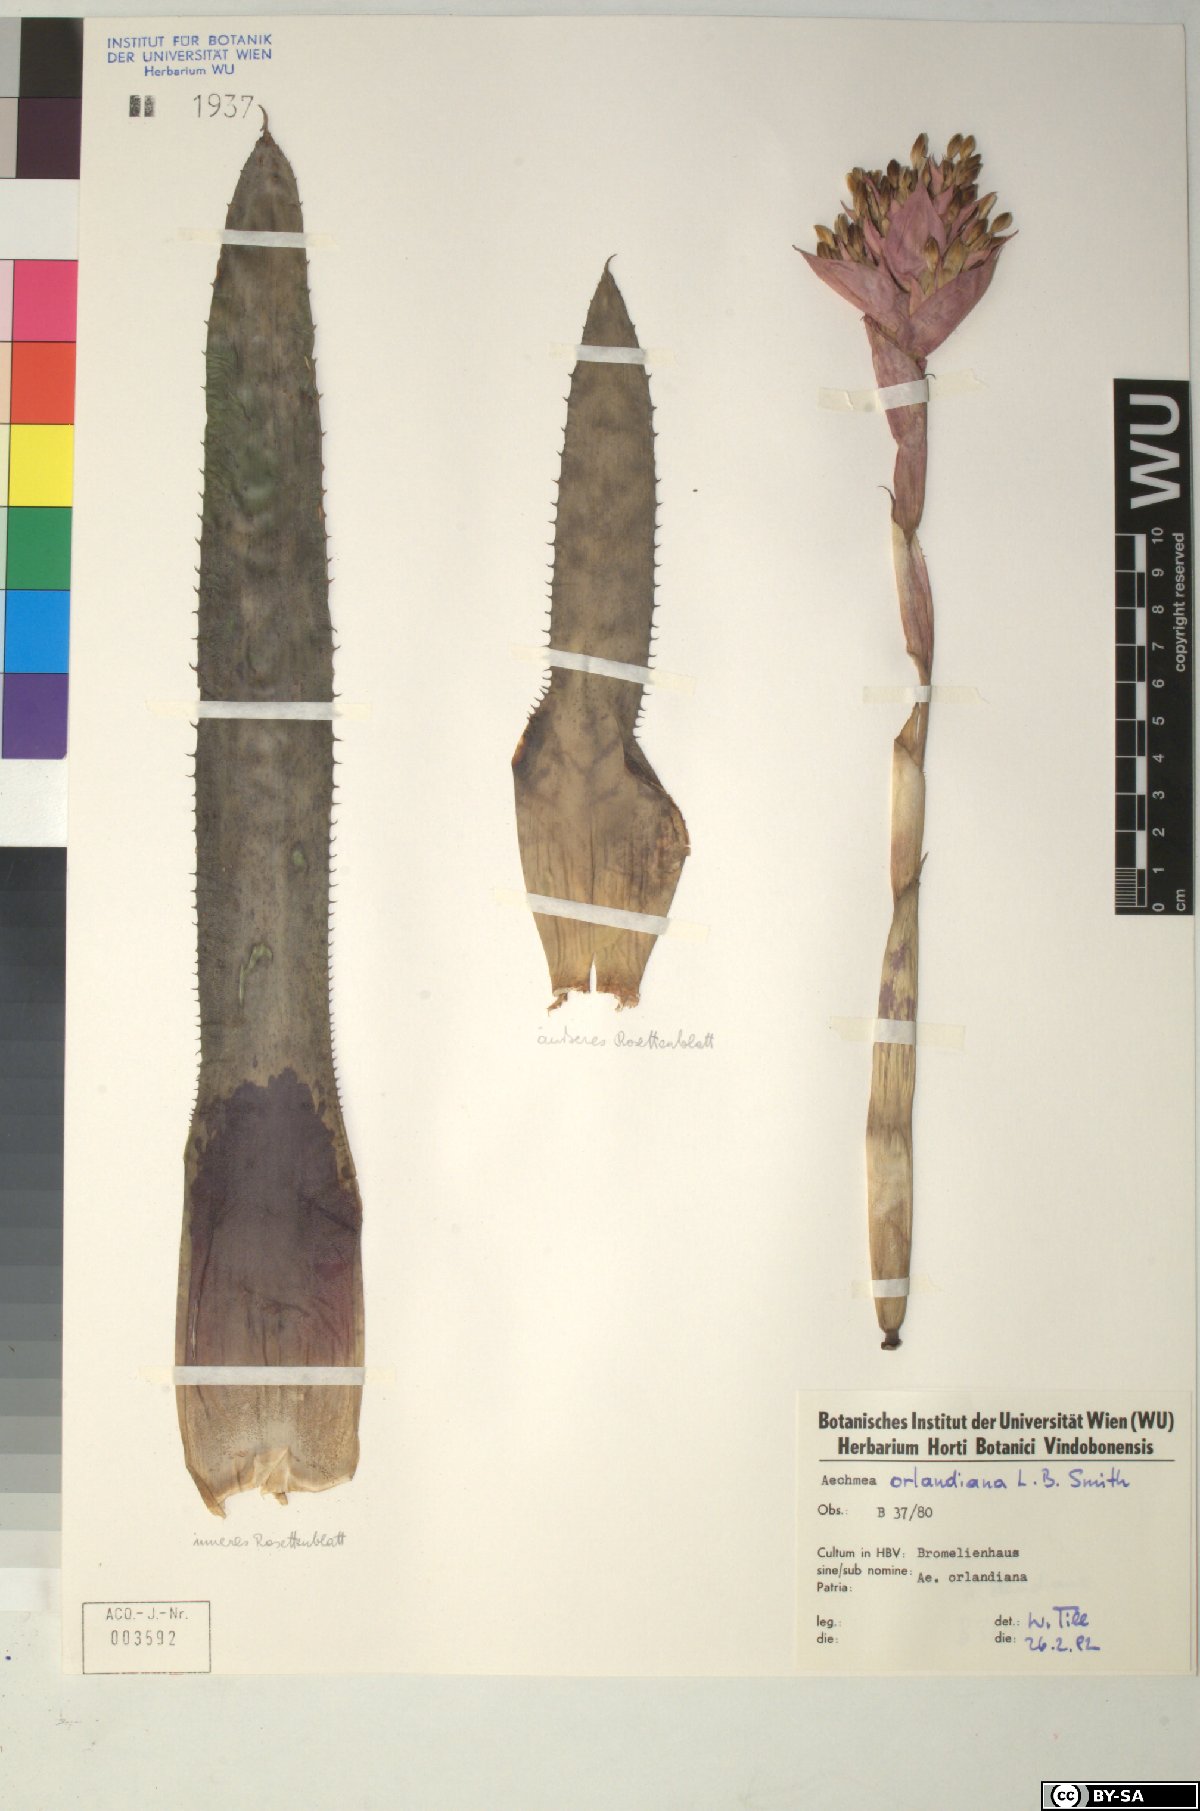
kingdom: Plantae
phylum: Tracheophyta
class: Liliopsida
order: Poales
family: Bromeliaceae
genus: Aechmea
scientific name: Aechmea
